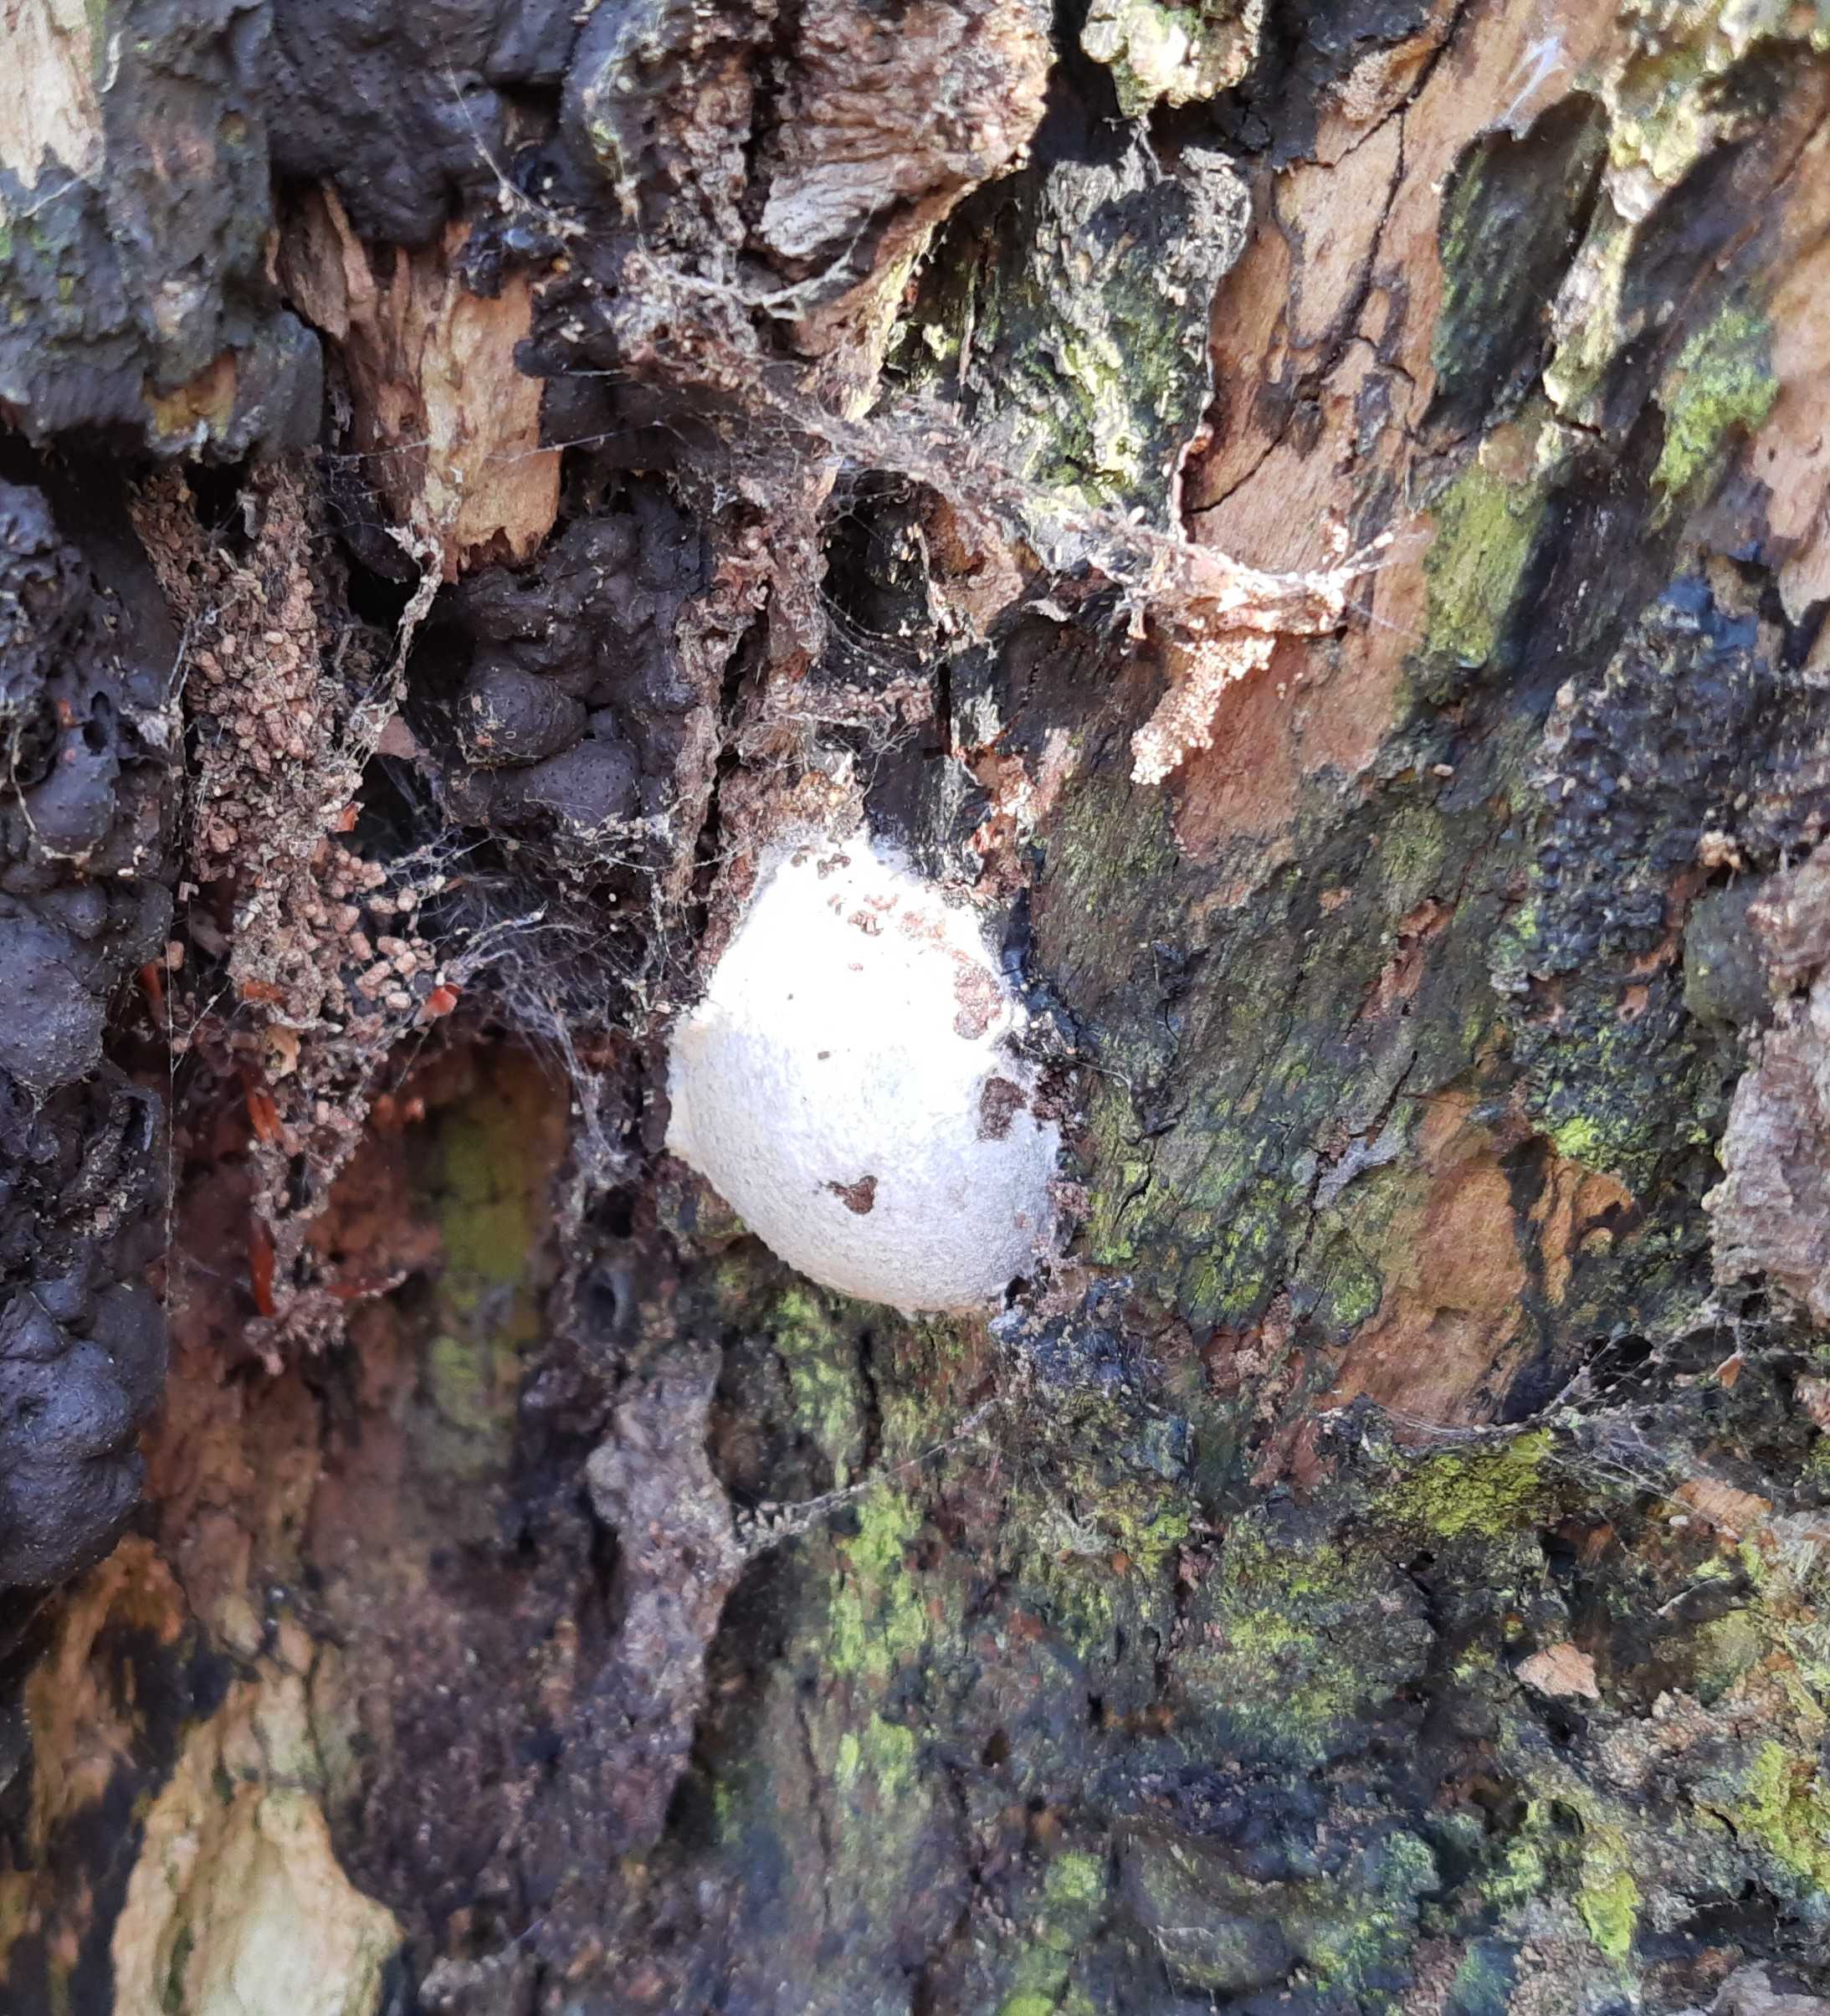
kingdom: Protozoa
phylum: Mycetozoa
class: Myxomycetes
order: Cribrariales
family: Tubiferaceae
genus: Reticularia
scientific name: Reticularia lycoperdon
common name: skinnende støvpude
